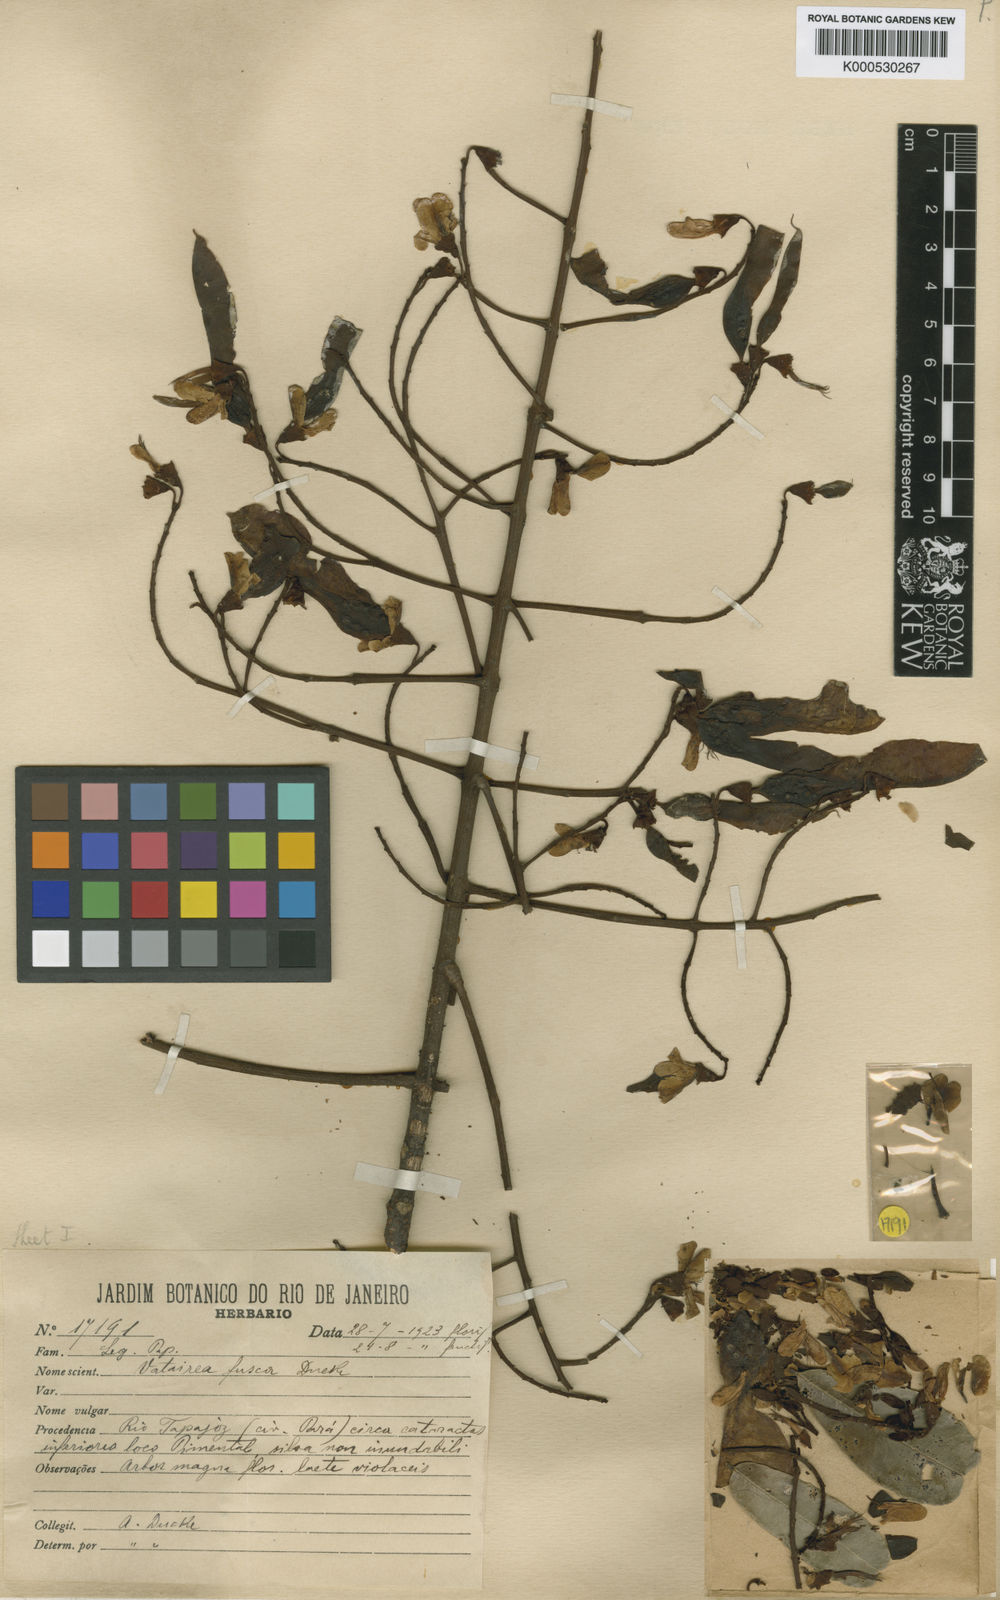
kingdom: Plantae
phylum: Tracheophyta
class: Magnoliopsida
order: Fabales
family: Fabaceae
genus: Vatairea
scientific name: Vatairea fusca
